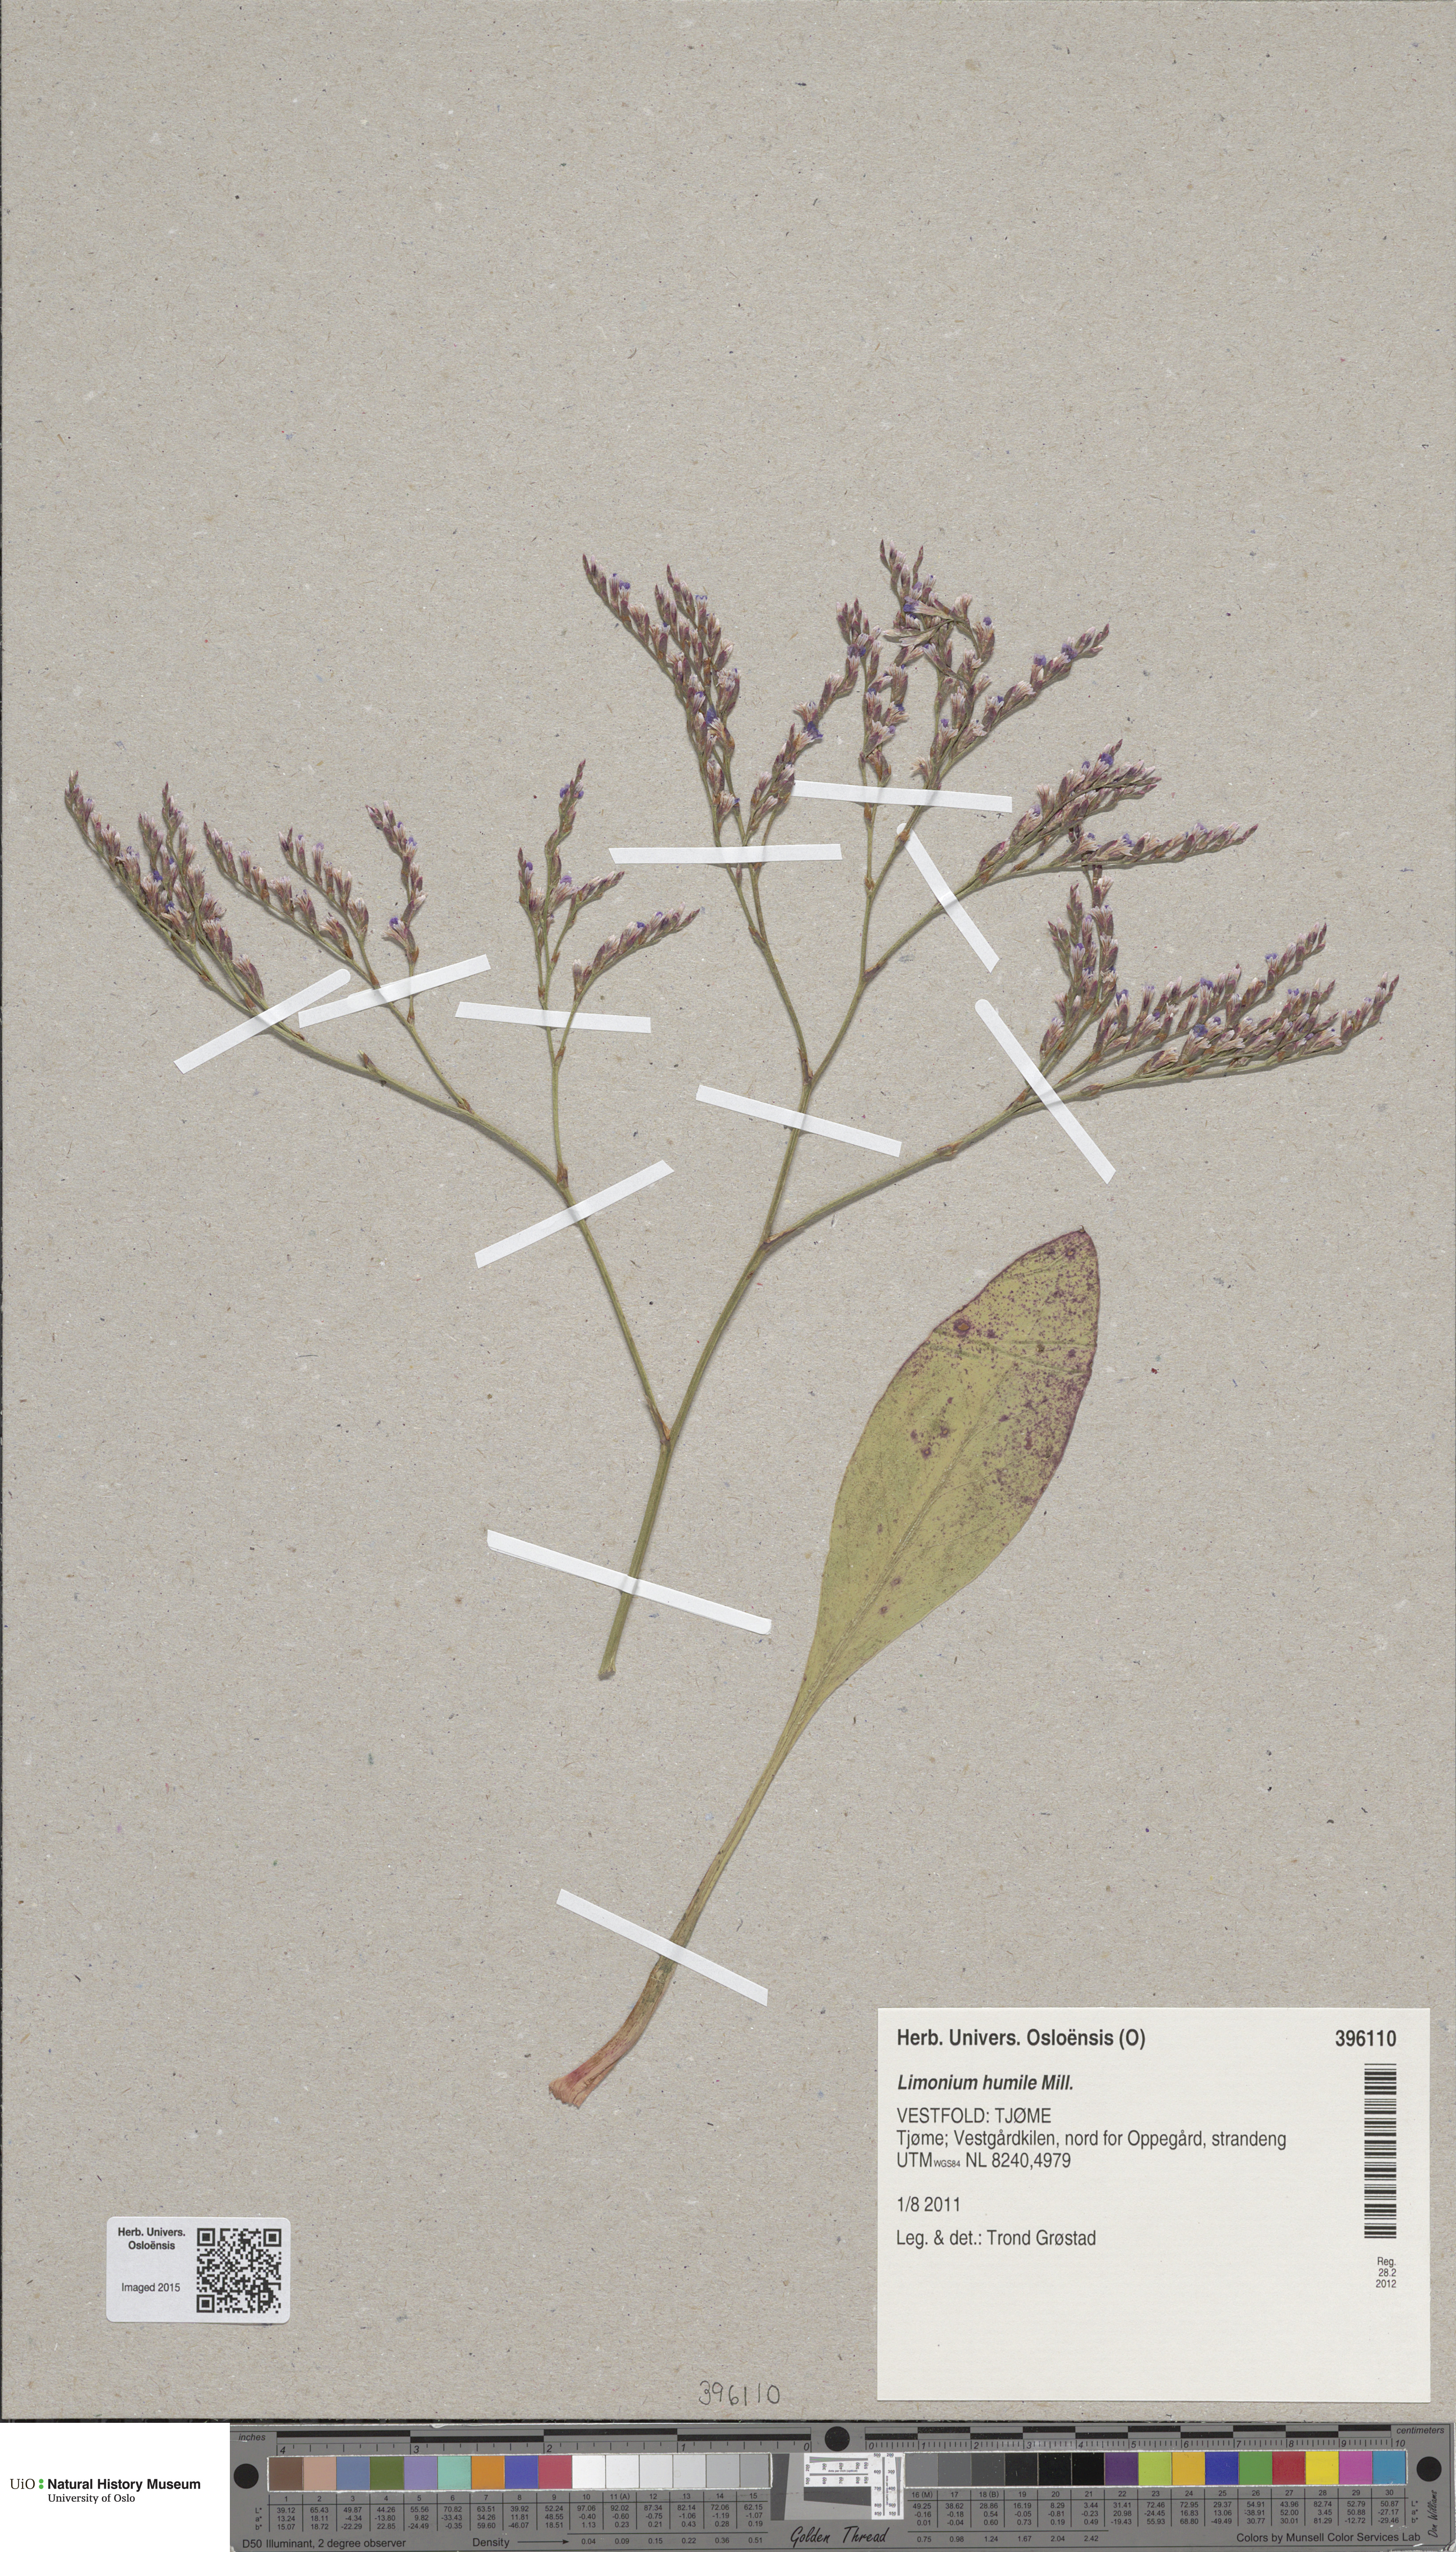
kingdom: Plantae
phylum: Tracheophyta
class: Magnoliopsida
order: Caryophyllales
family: Plumbaginaceae
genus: Limonium
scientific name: Limonium humile
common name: Lax-flowered sea-lavender
